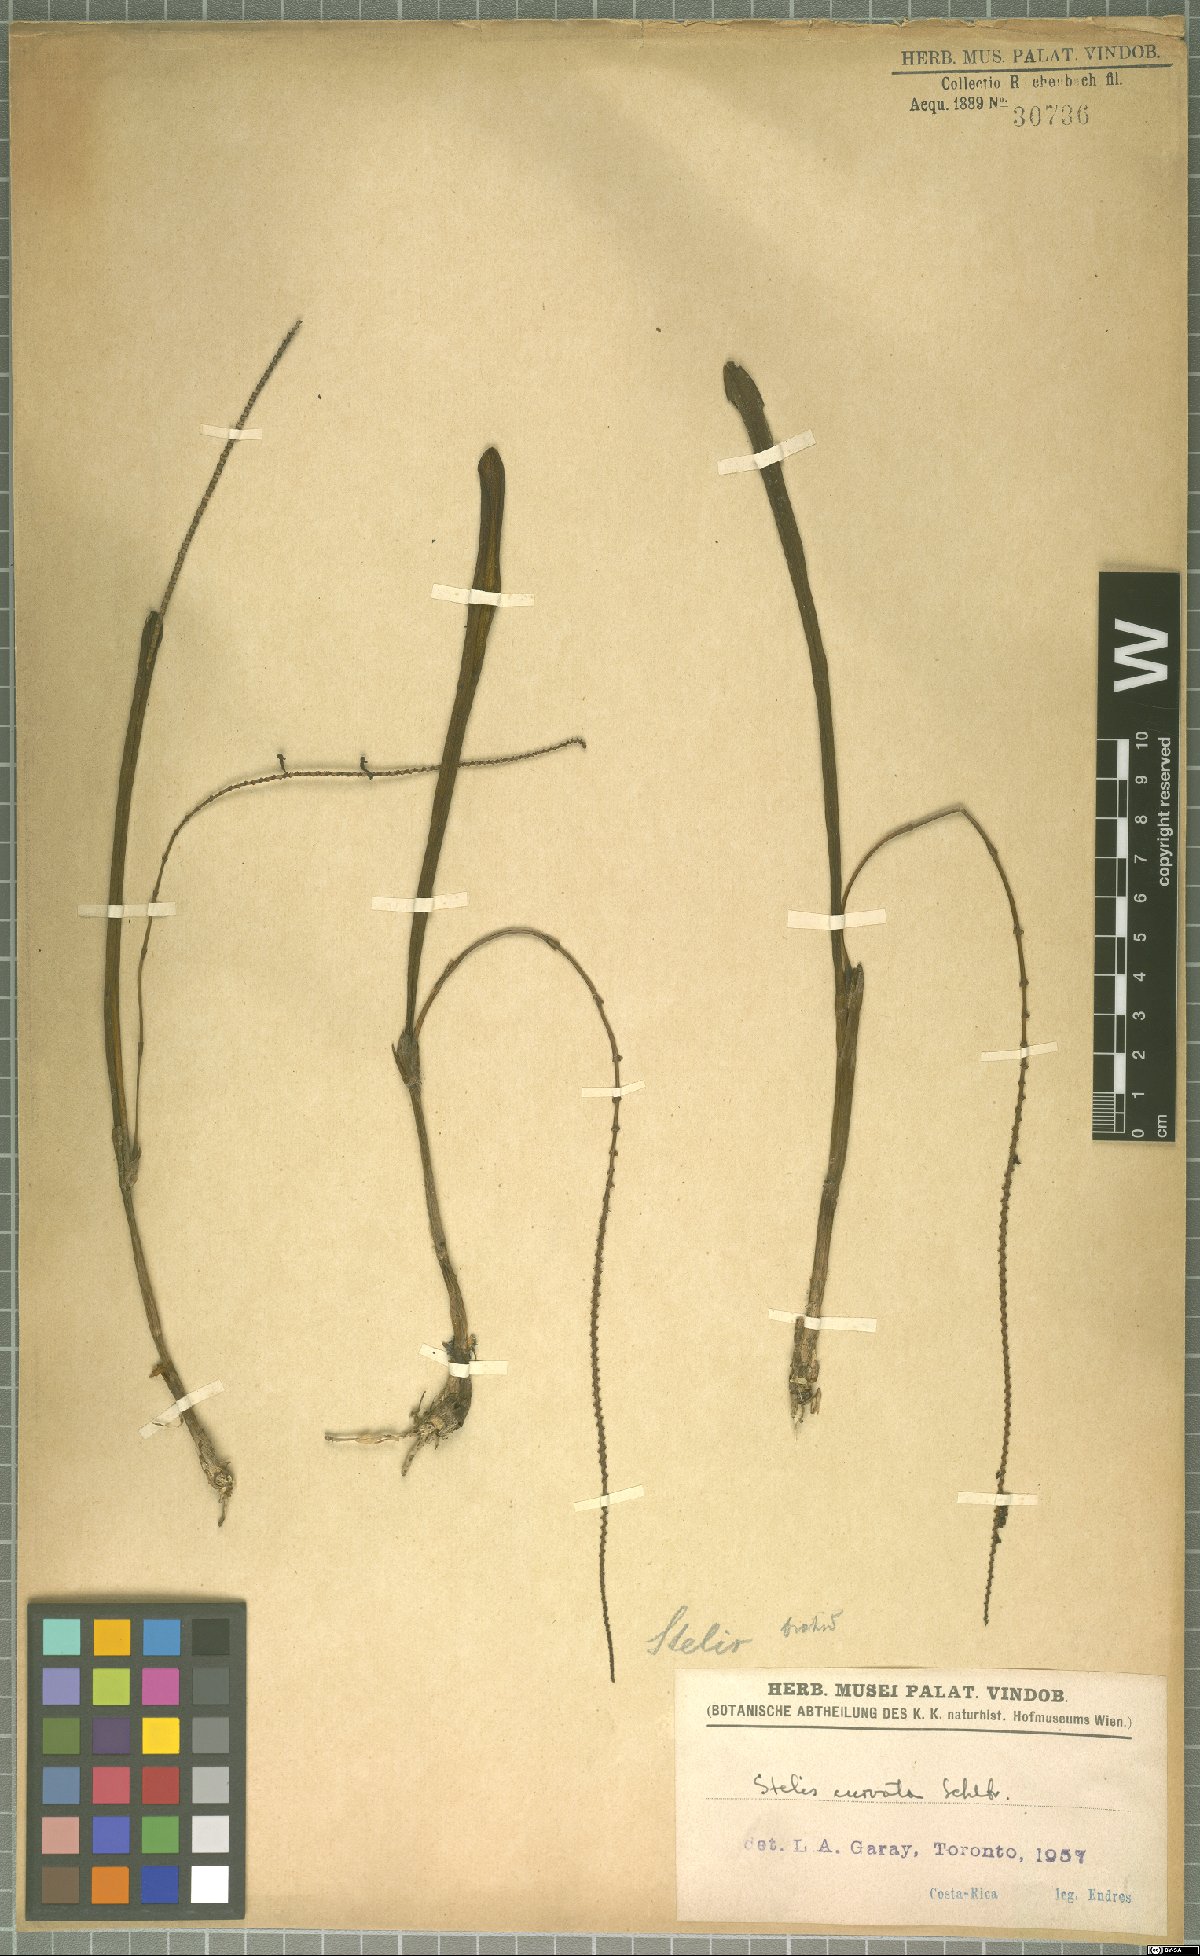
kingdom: Plantae
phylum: Tracheophyta
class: Liliopsida
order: Asparagales
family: Orchidaceae
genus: Stelis
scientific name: Stelis purpurascens
